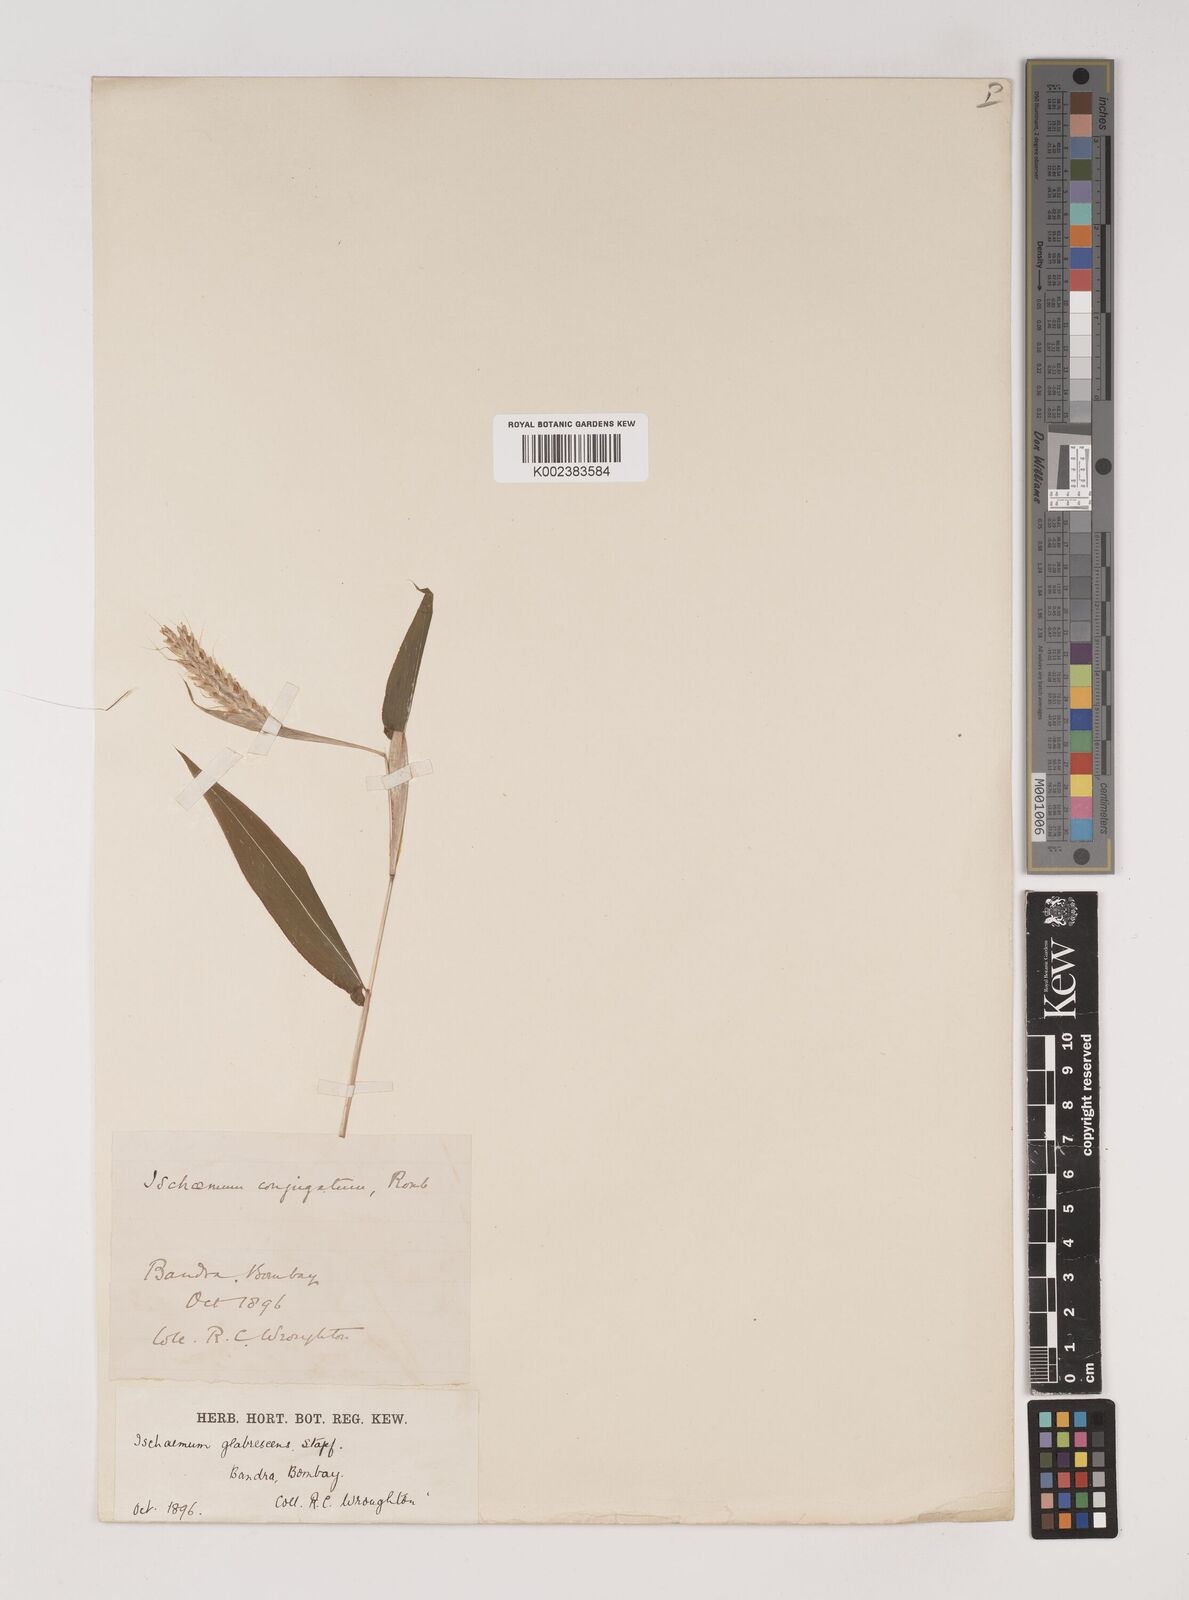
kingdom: Plantae
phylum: Tracheophyta
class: Liliopsida
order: Poales
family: Poaceae
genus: Ischaemum
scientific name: Ischaemum huegelii
